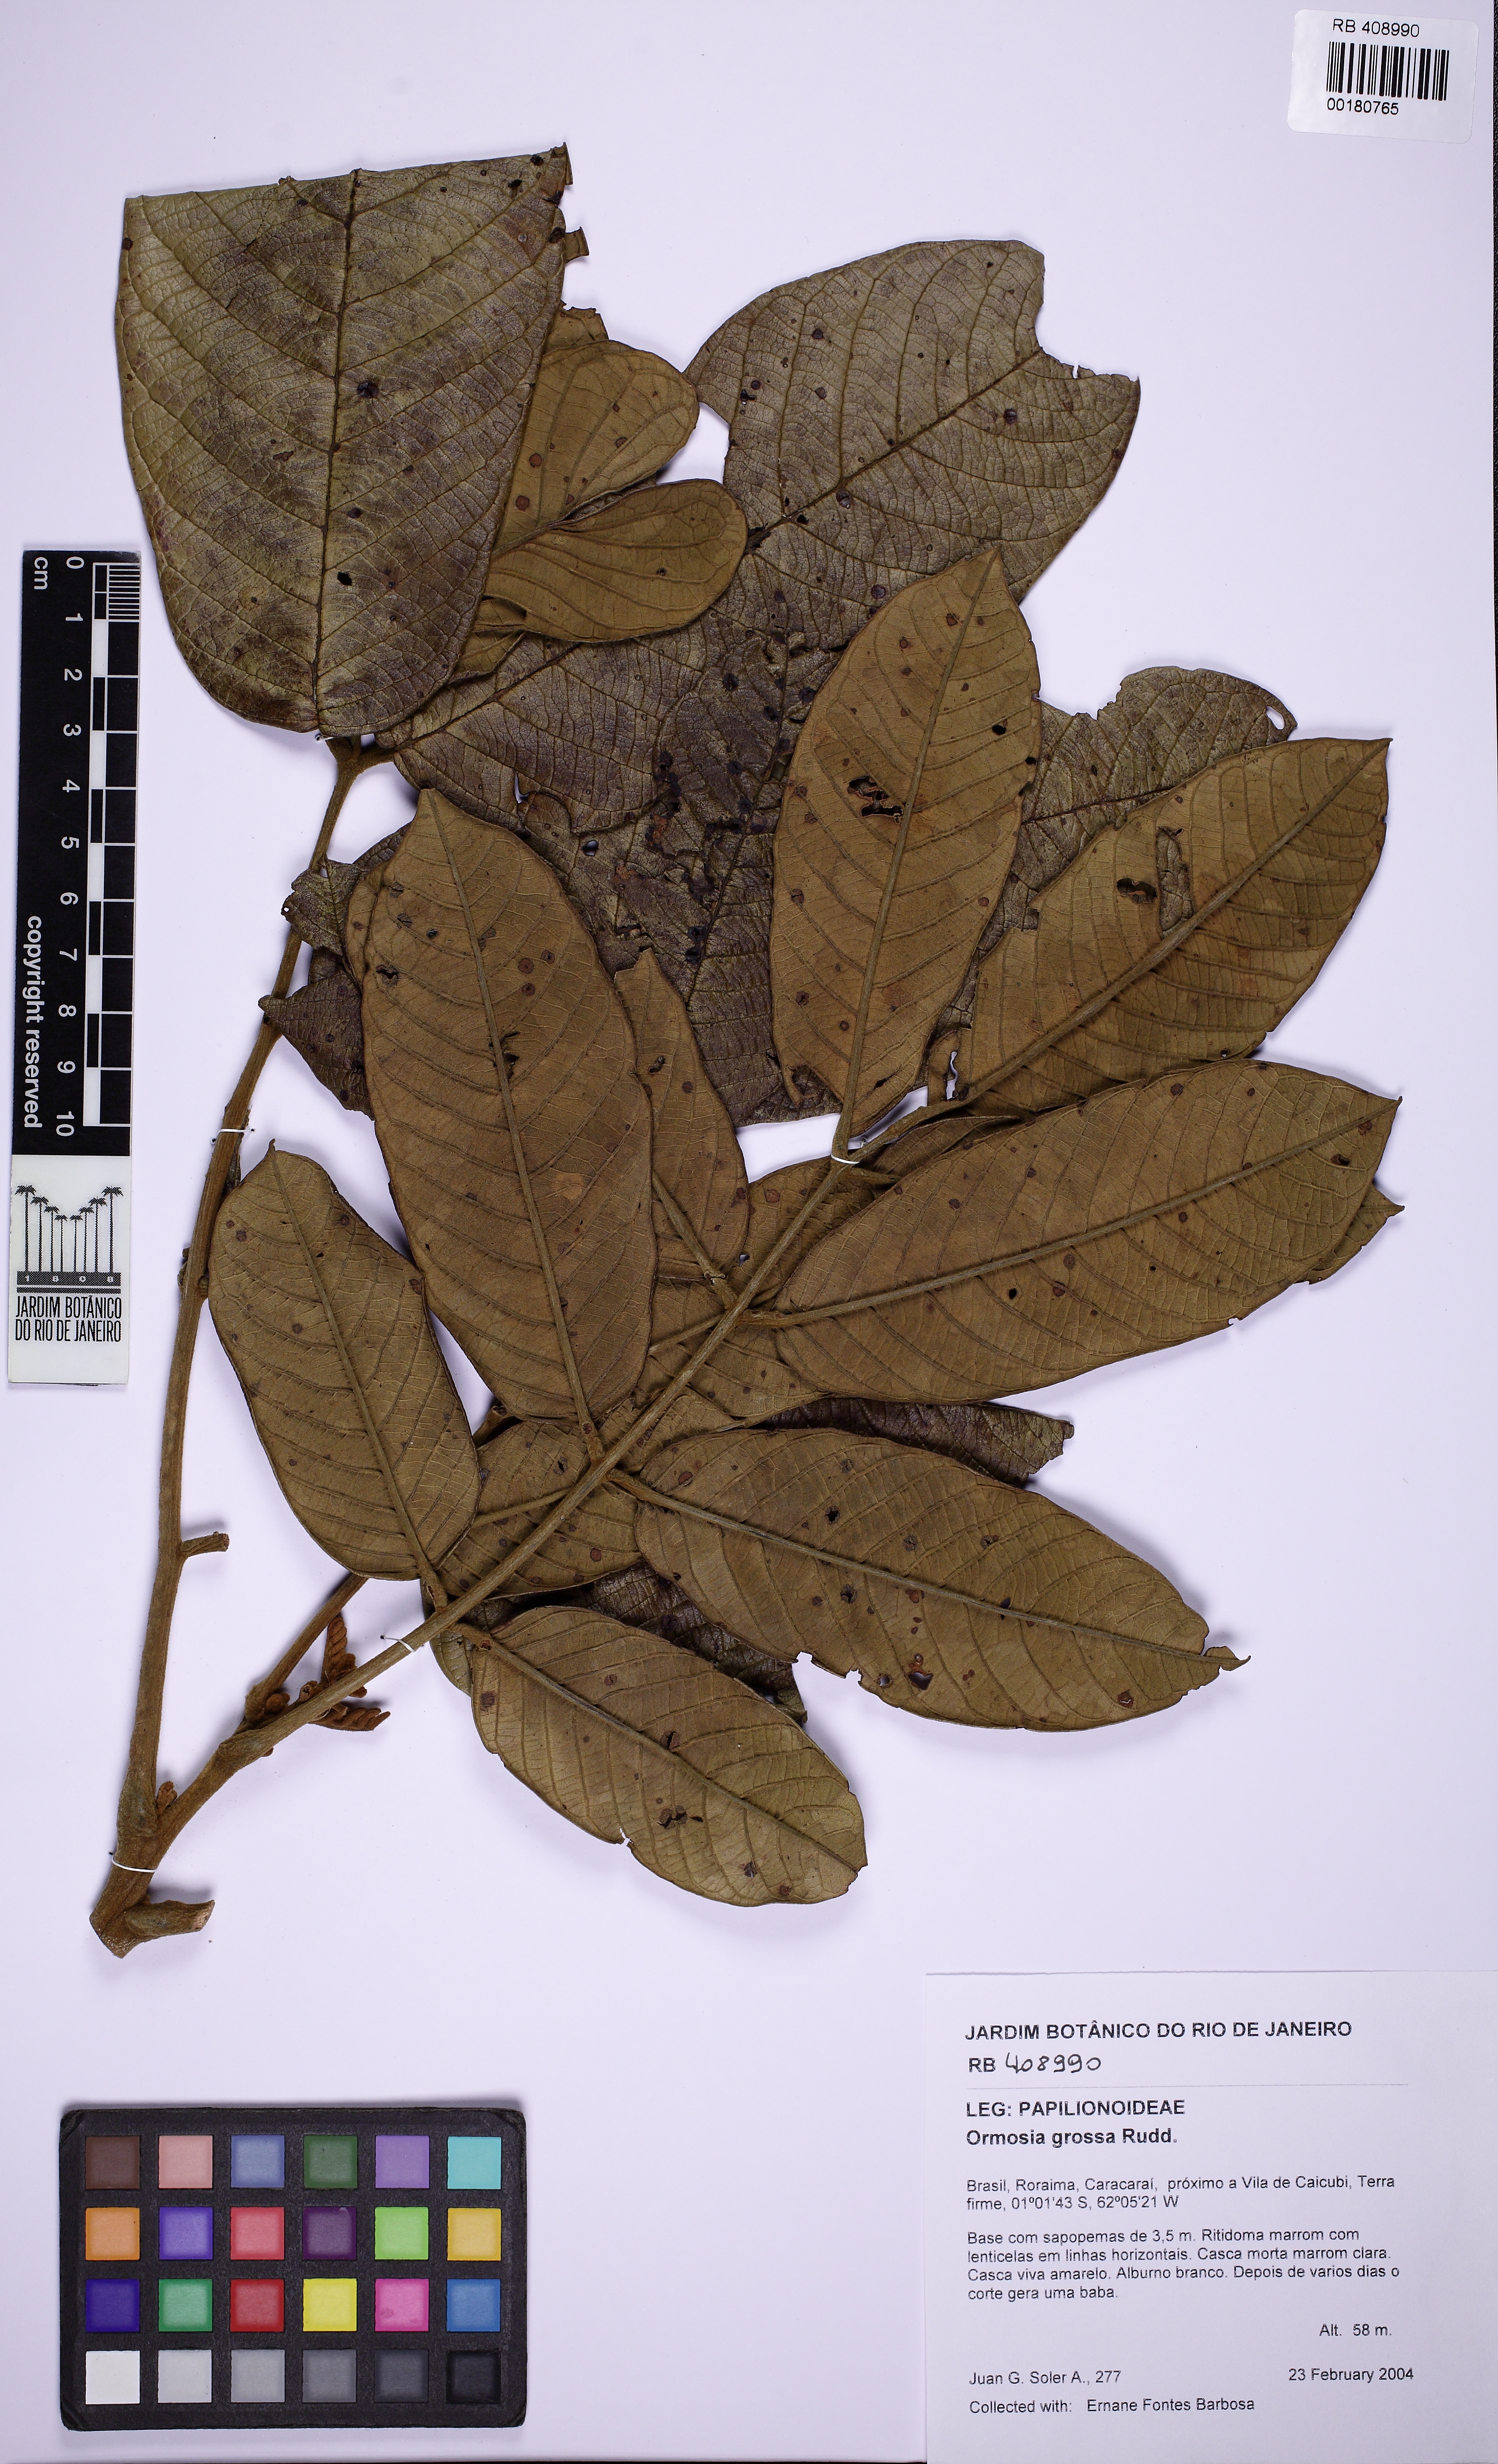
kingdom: Plantae
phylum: Tracheophyta
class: Magnoliopsida
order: Fabales
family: Fabaceae
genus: Ormosia
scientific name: Ormosia grossa
